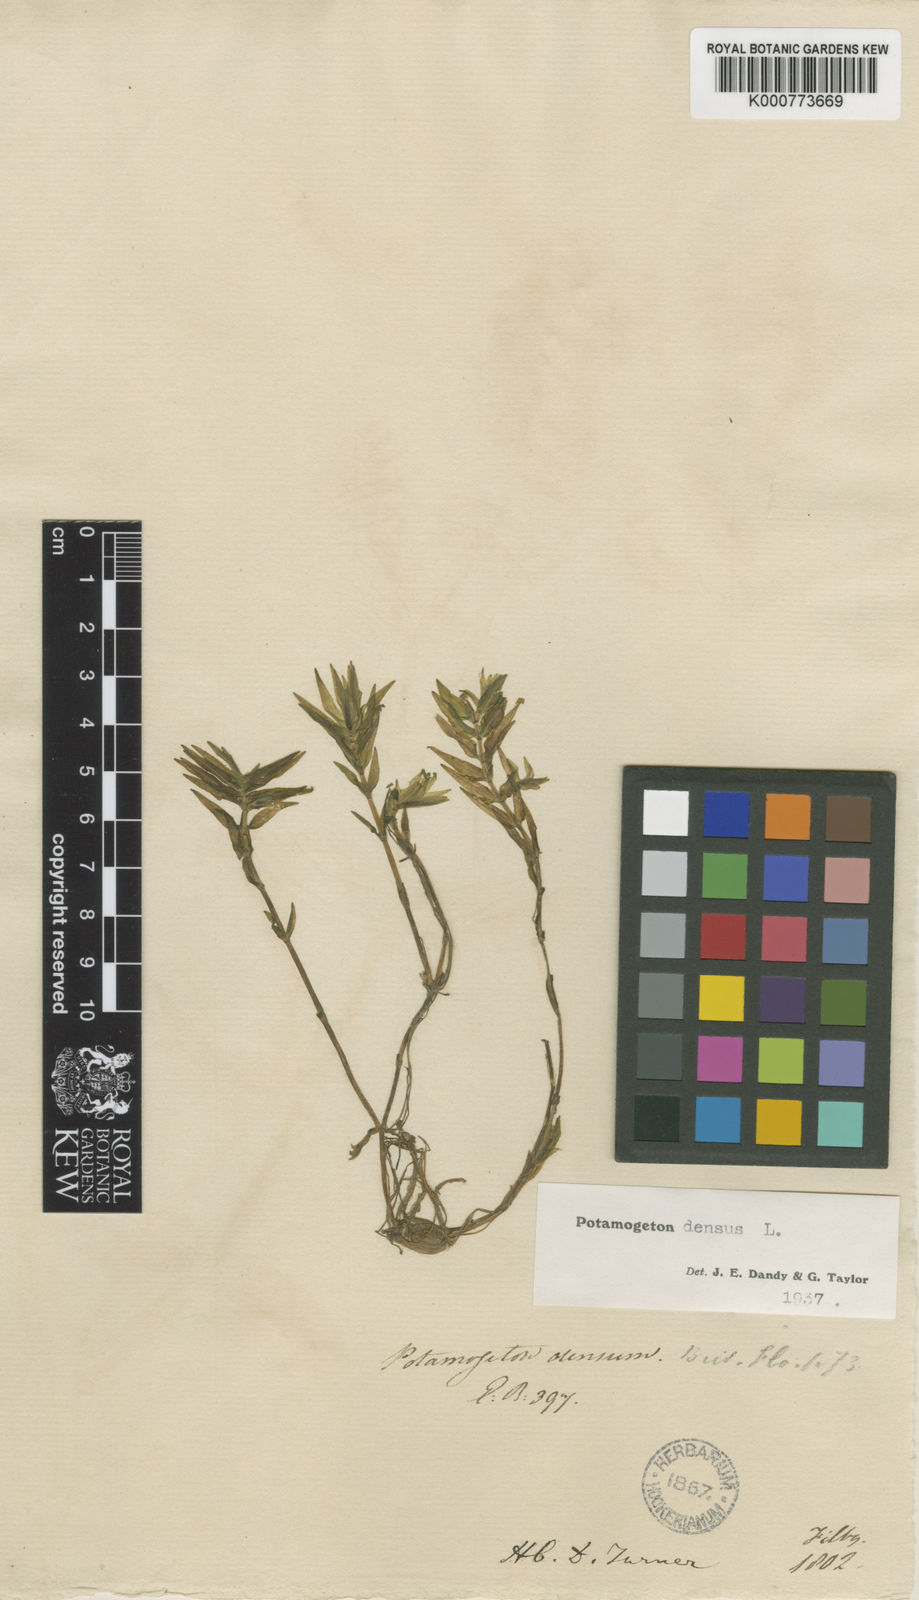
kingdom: Plantae
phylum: Tracheophyta
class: Liliopsida
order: Alismatales
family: Potamogetonaceae
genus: Groenlandia
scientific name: Groenlandia densa
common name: Opposite-leaved pondweed
